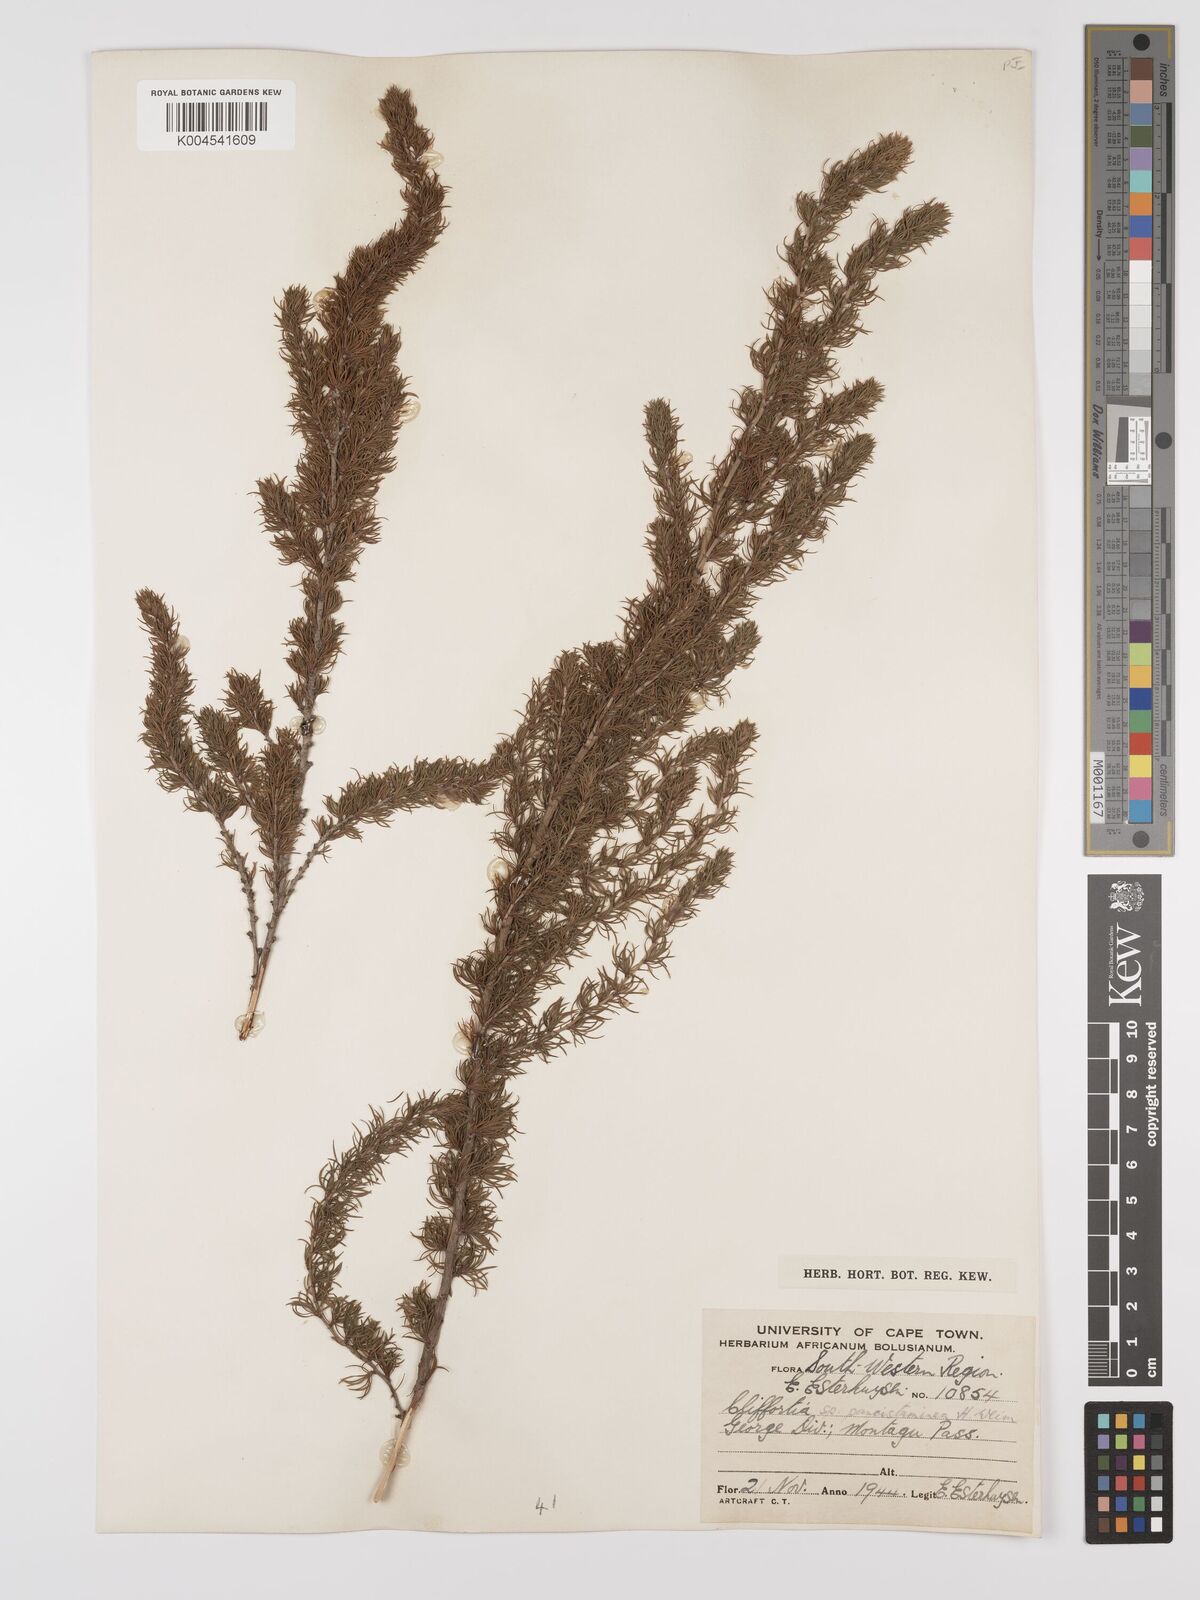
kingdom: Plantae
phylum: Tracheophyta
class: Magnoliopsida
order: Rosales
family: Rosaceae
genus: Cliffortia
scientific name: Cliffortia paucistaminea
